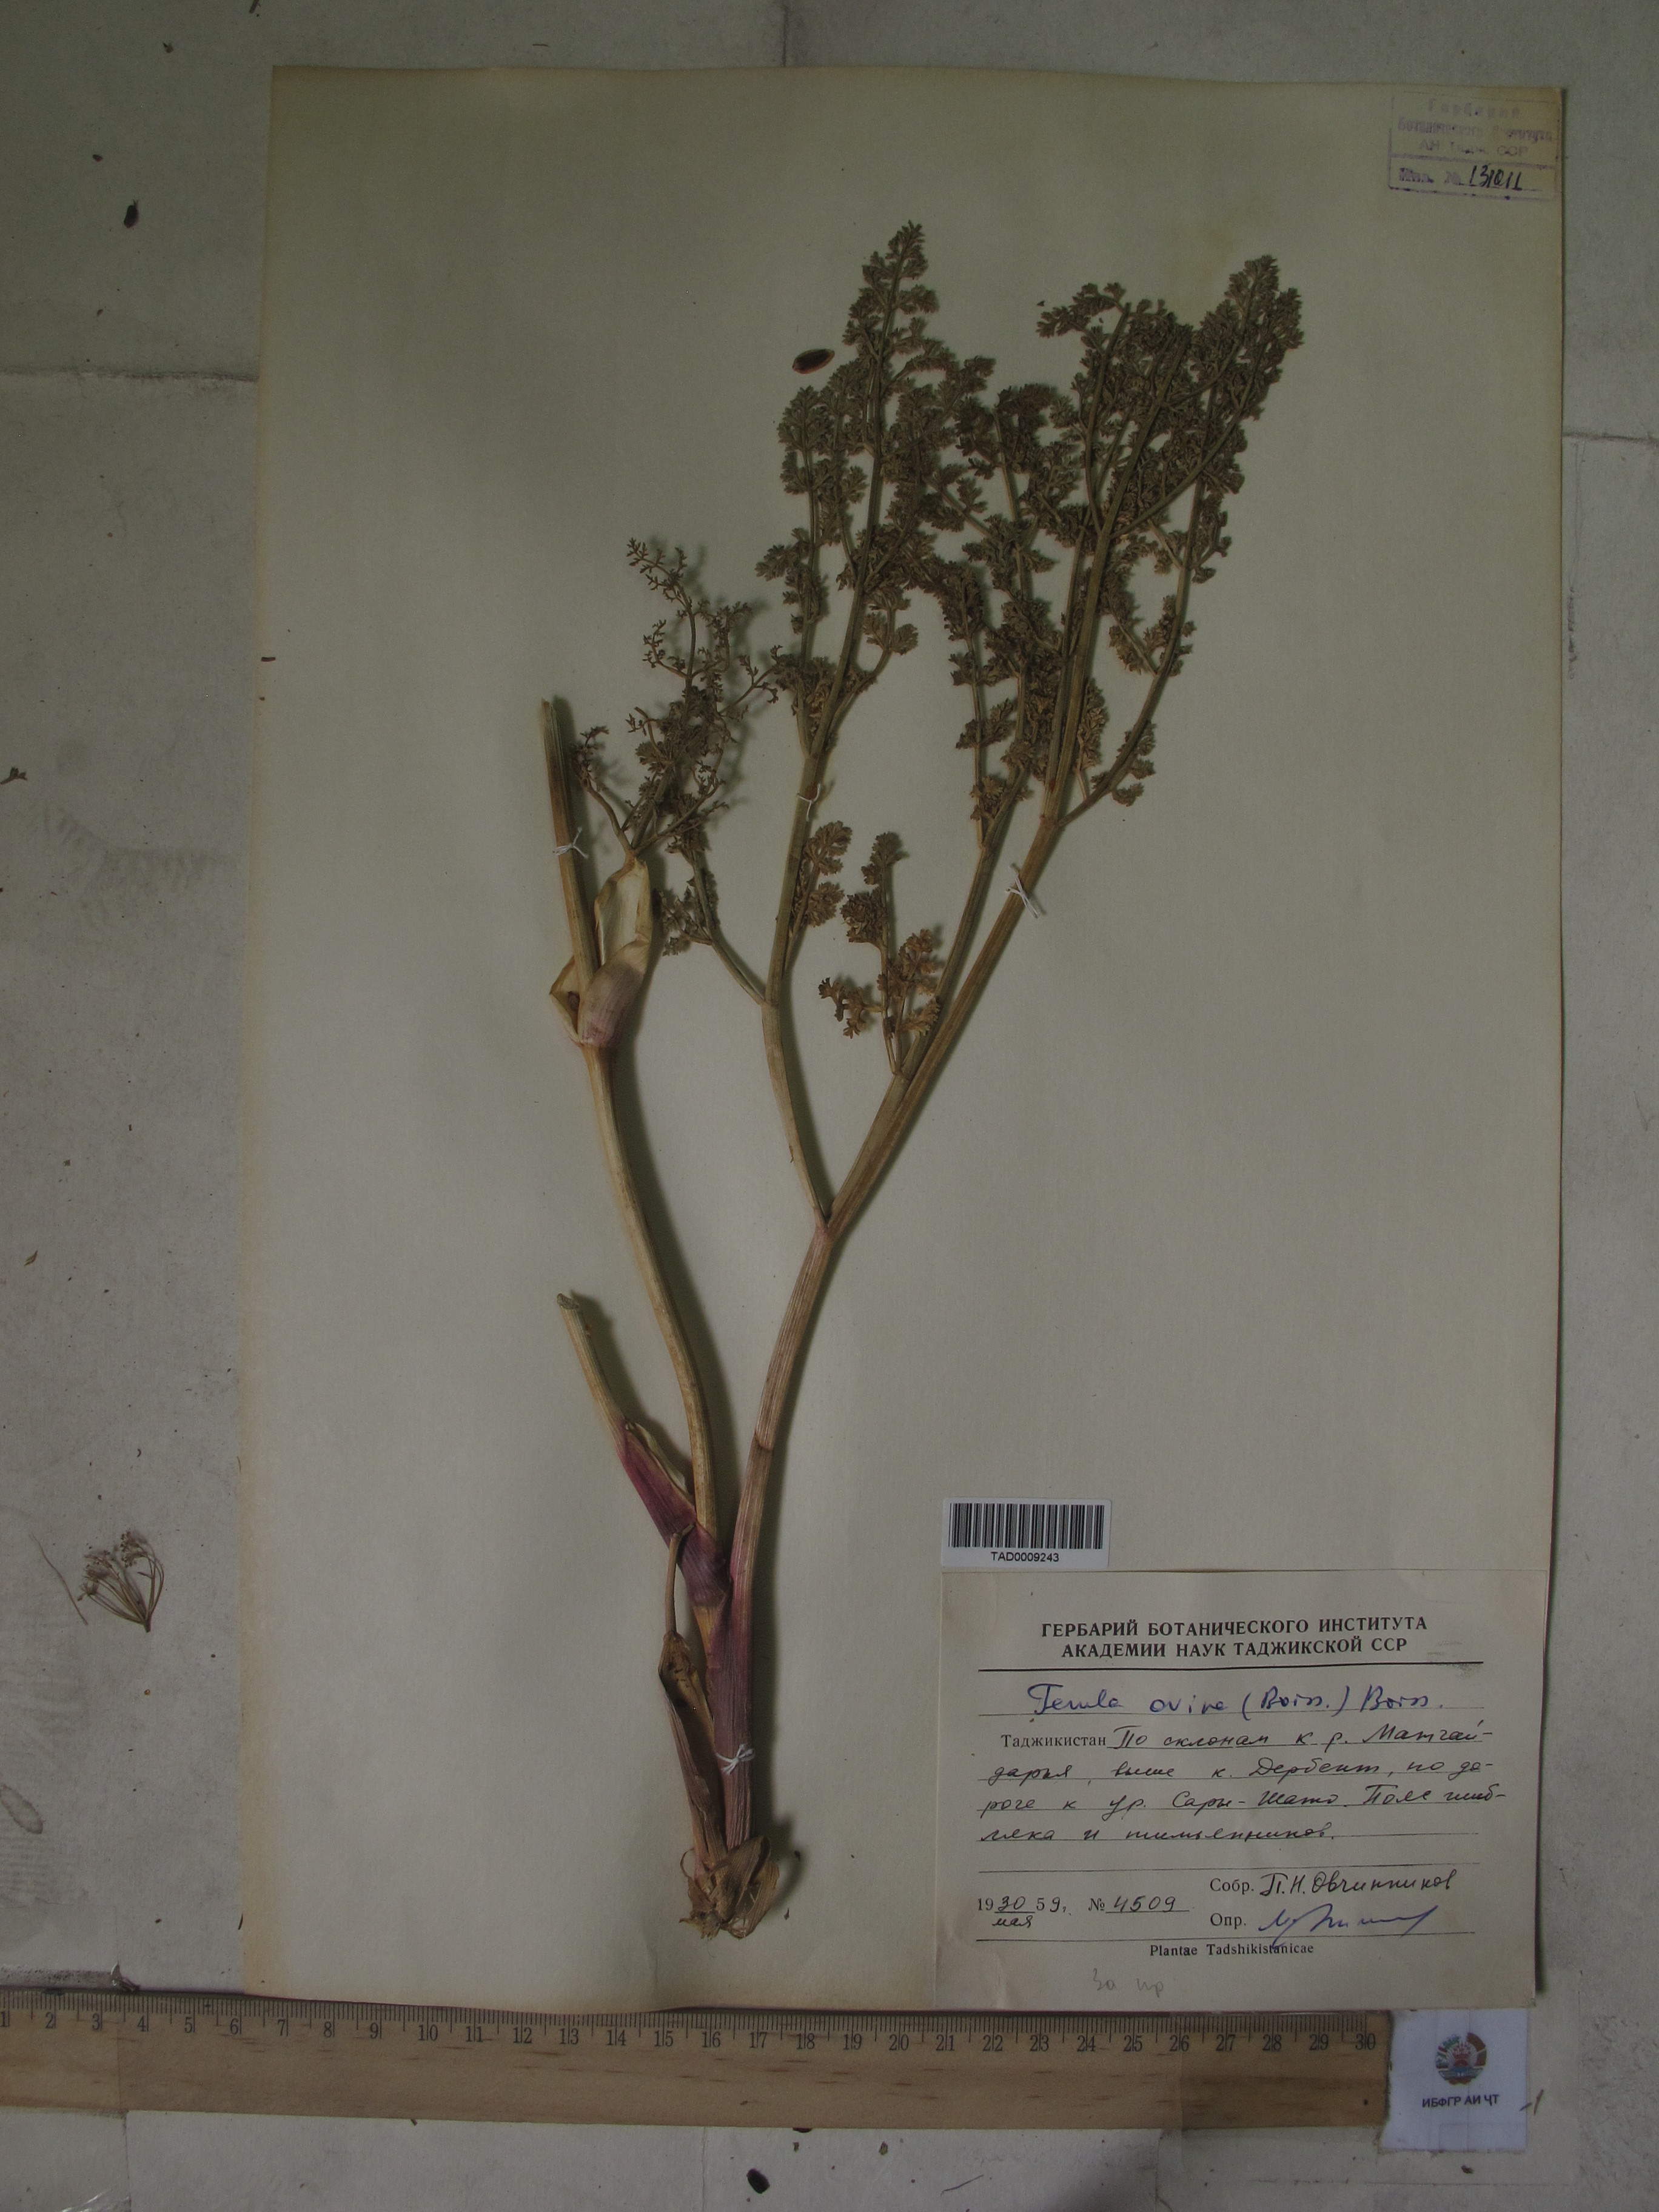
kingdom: Plantae
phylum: Tracheophyta
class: Magnoliopsida
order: Apiales
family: Apiaceae
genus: Ferula
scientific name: Ferula ovina
